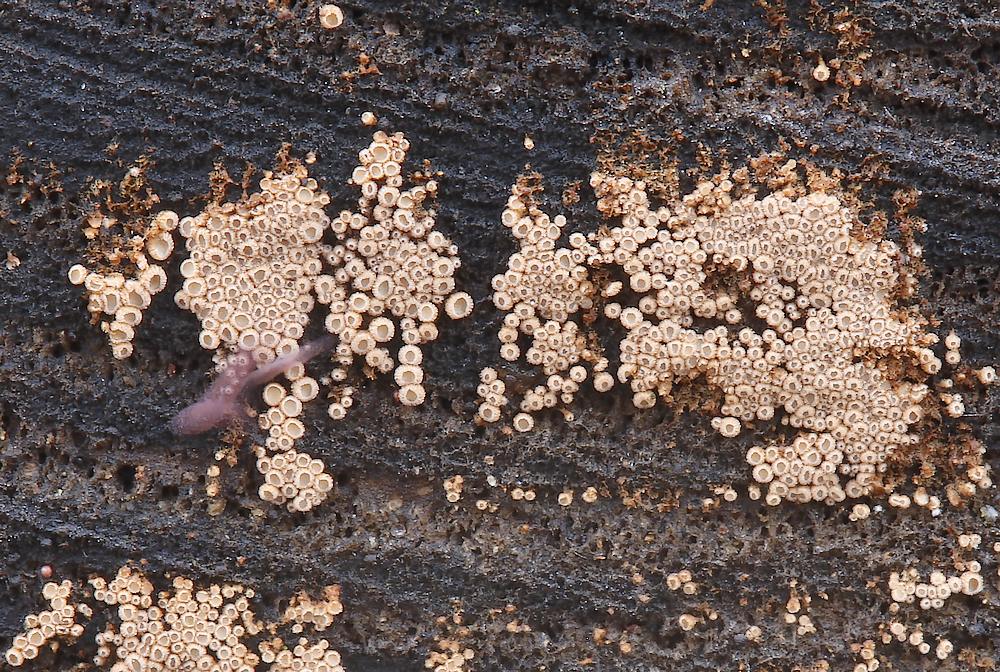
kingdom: Fungi
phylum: Basidiomycota
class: Agaricomycetes
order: Agaricales
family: Niaceae
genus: Merismodes
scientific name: Merismodes anomala
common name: almindelig læderskål
